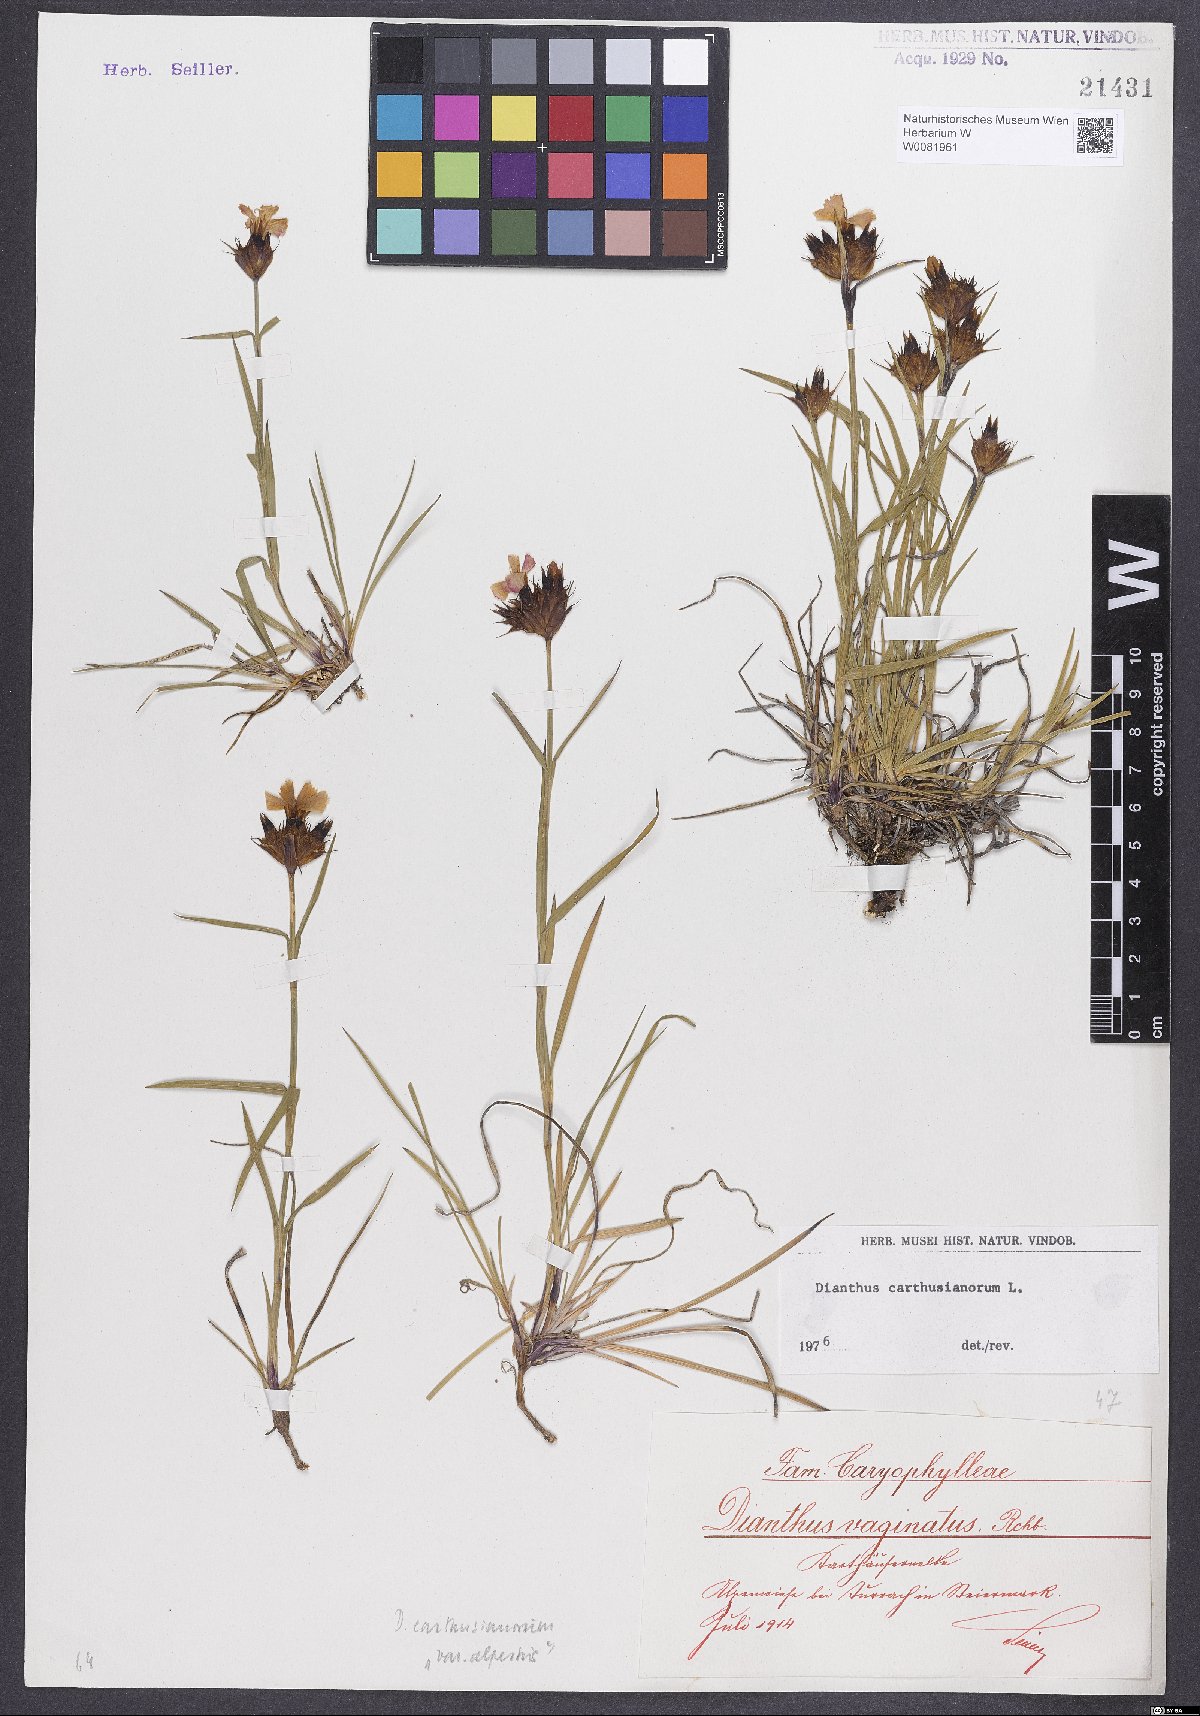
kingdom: Plantae
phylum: Tracheophyta
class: Magnoliopsida
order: Caryophyllales
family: Caryophyllaceae
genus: Dianthus
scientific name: Dianthus carthusianorum
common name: Carthusian pink
